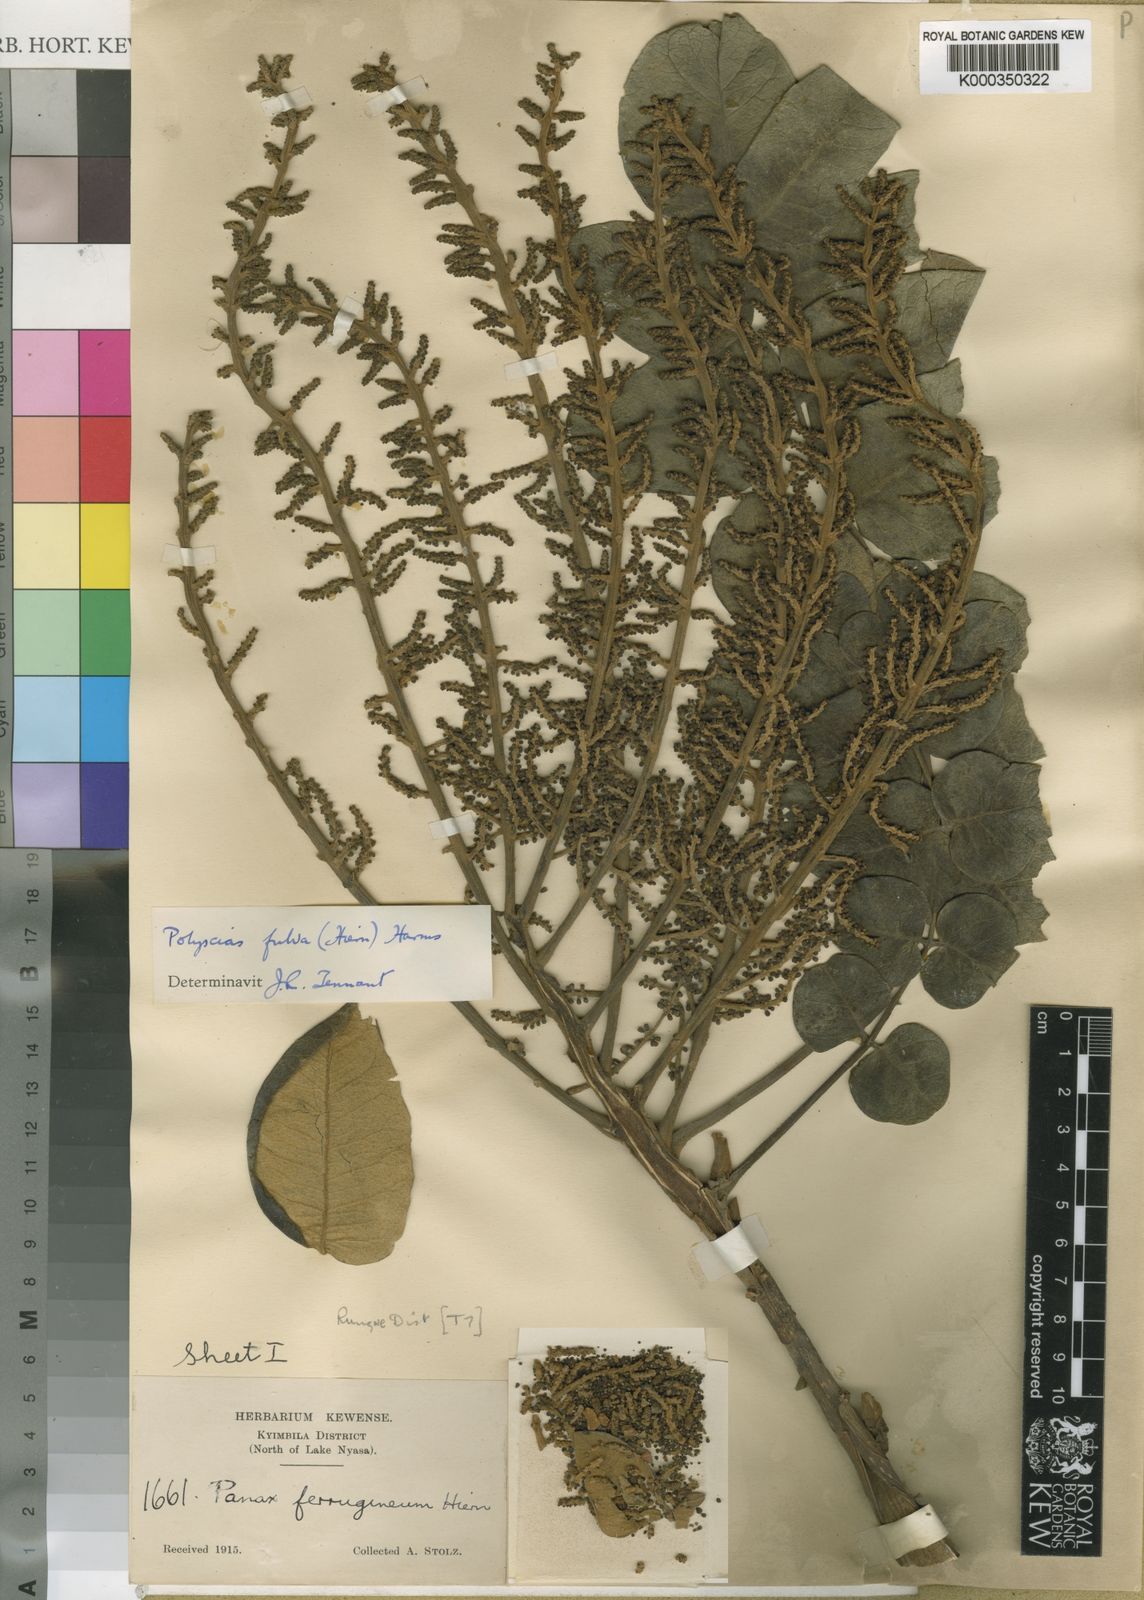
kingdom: Plantae
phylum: Tracheophyta
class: Magnoliopsida
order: Apiales
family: Araliaceae
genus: Polyscias
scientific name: Polyscias fulva
